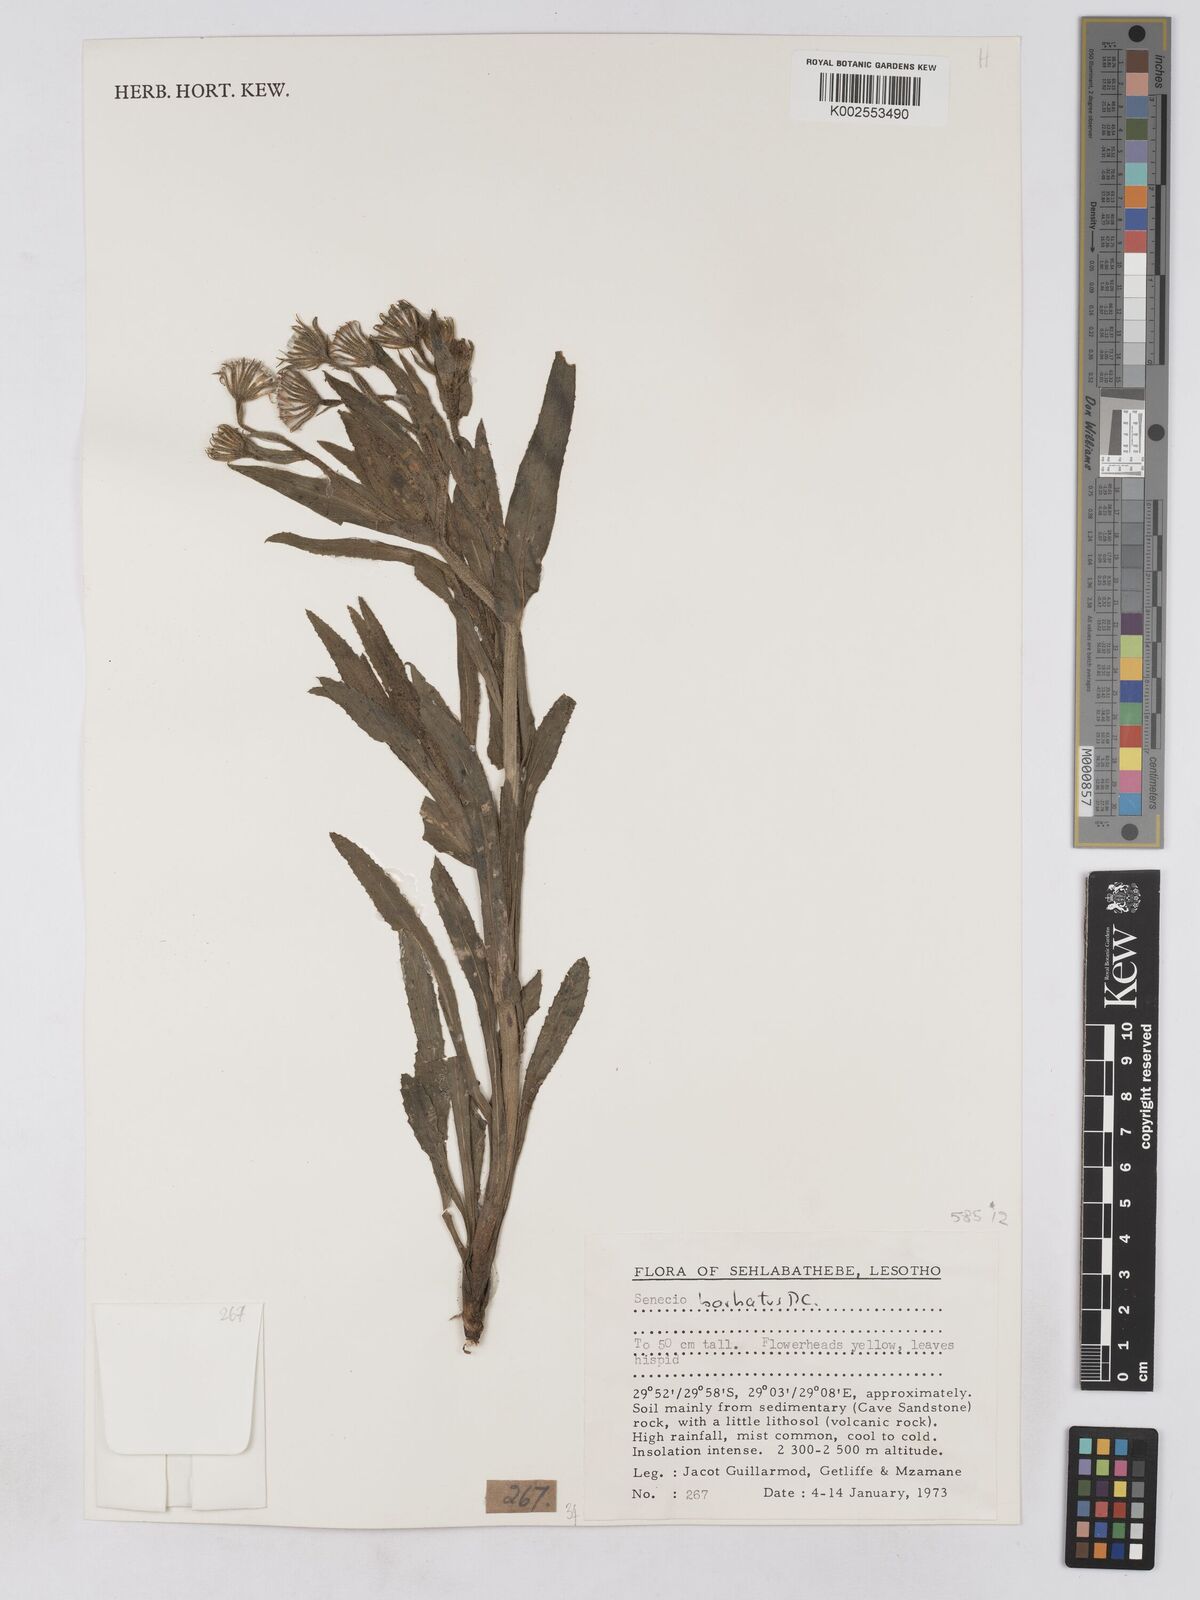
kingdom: Plantae
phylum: Tracheophyta
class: Magnoliopsida
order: Asterales
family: Asteraceae
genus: Senecio
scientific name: Senecio barbatus
